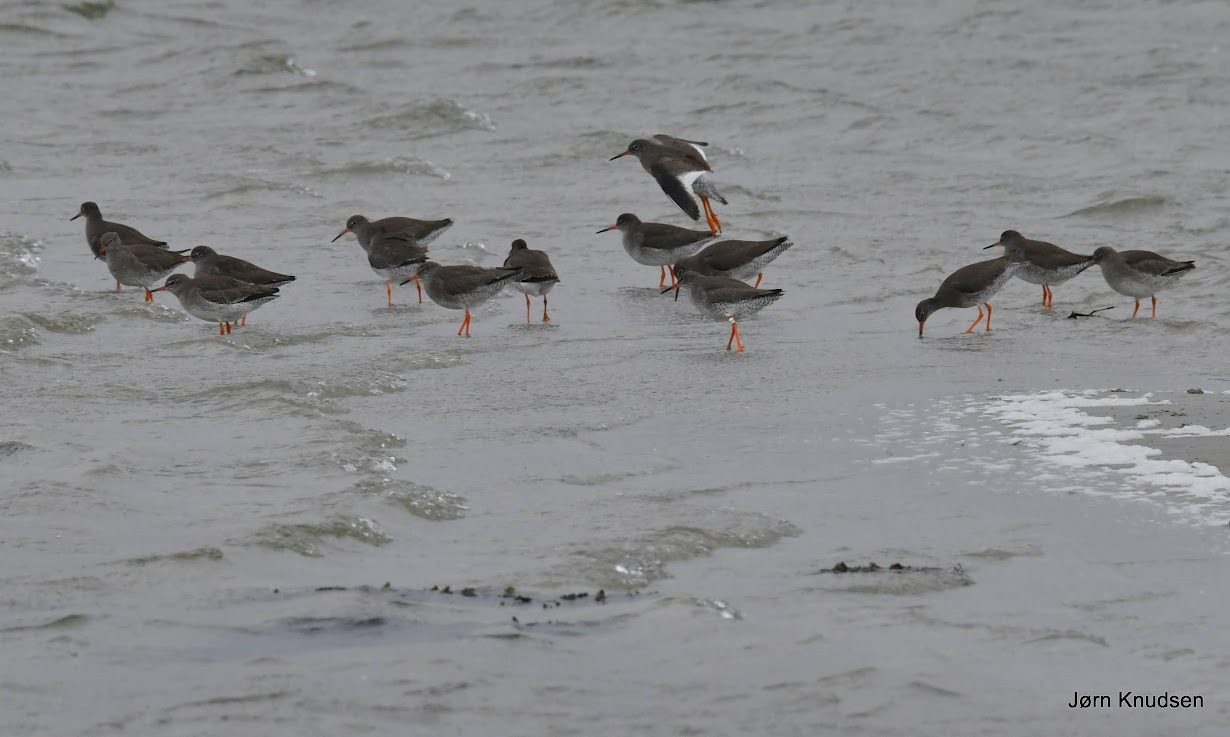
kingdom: Animalia
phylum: Chordata
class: Aves
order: Charadriiformes
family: Scolopacidae
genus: Tringa
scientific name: Tringa totanus
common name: Rødben
